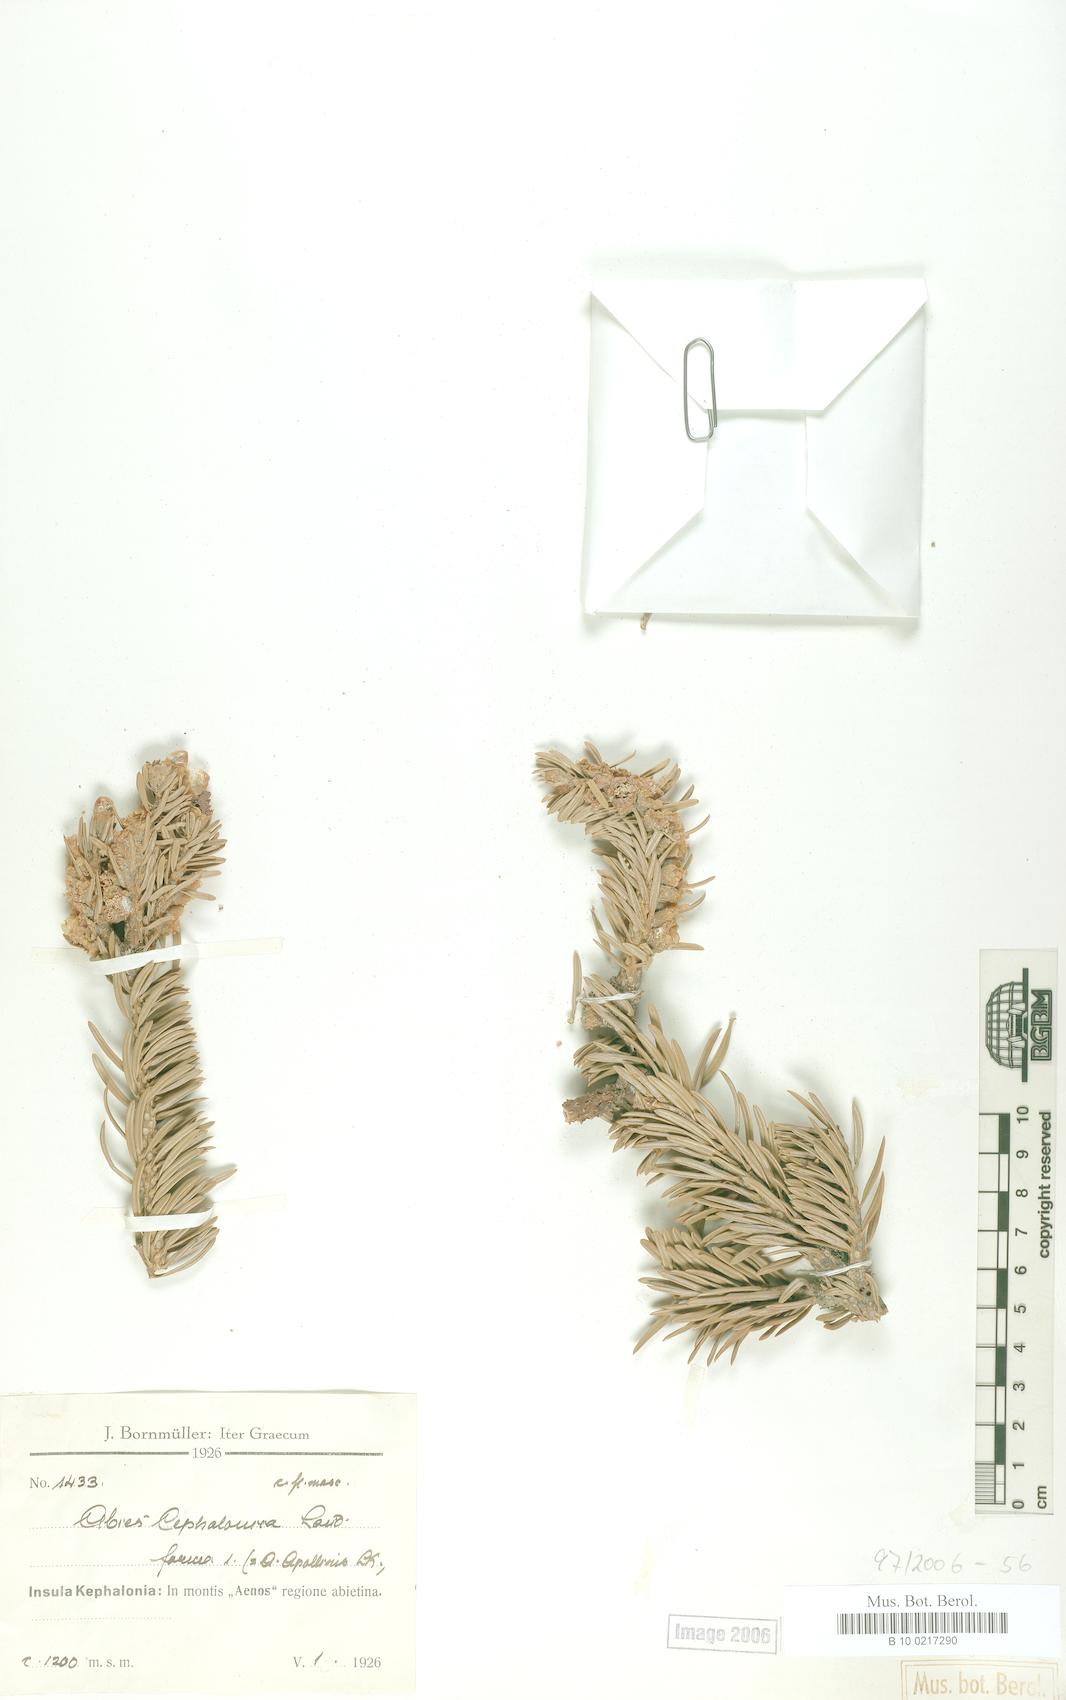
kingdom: Plantae
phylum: Tracheophyta
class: Pinopsida
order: Pinales
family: Pinaceae
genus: Abies
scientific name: Abies cephalonica
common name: Greek fir
